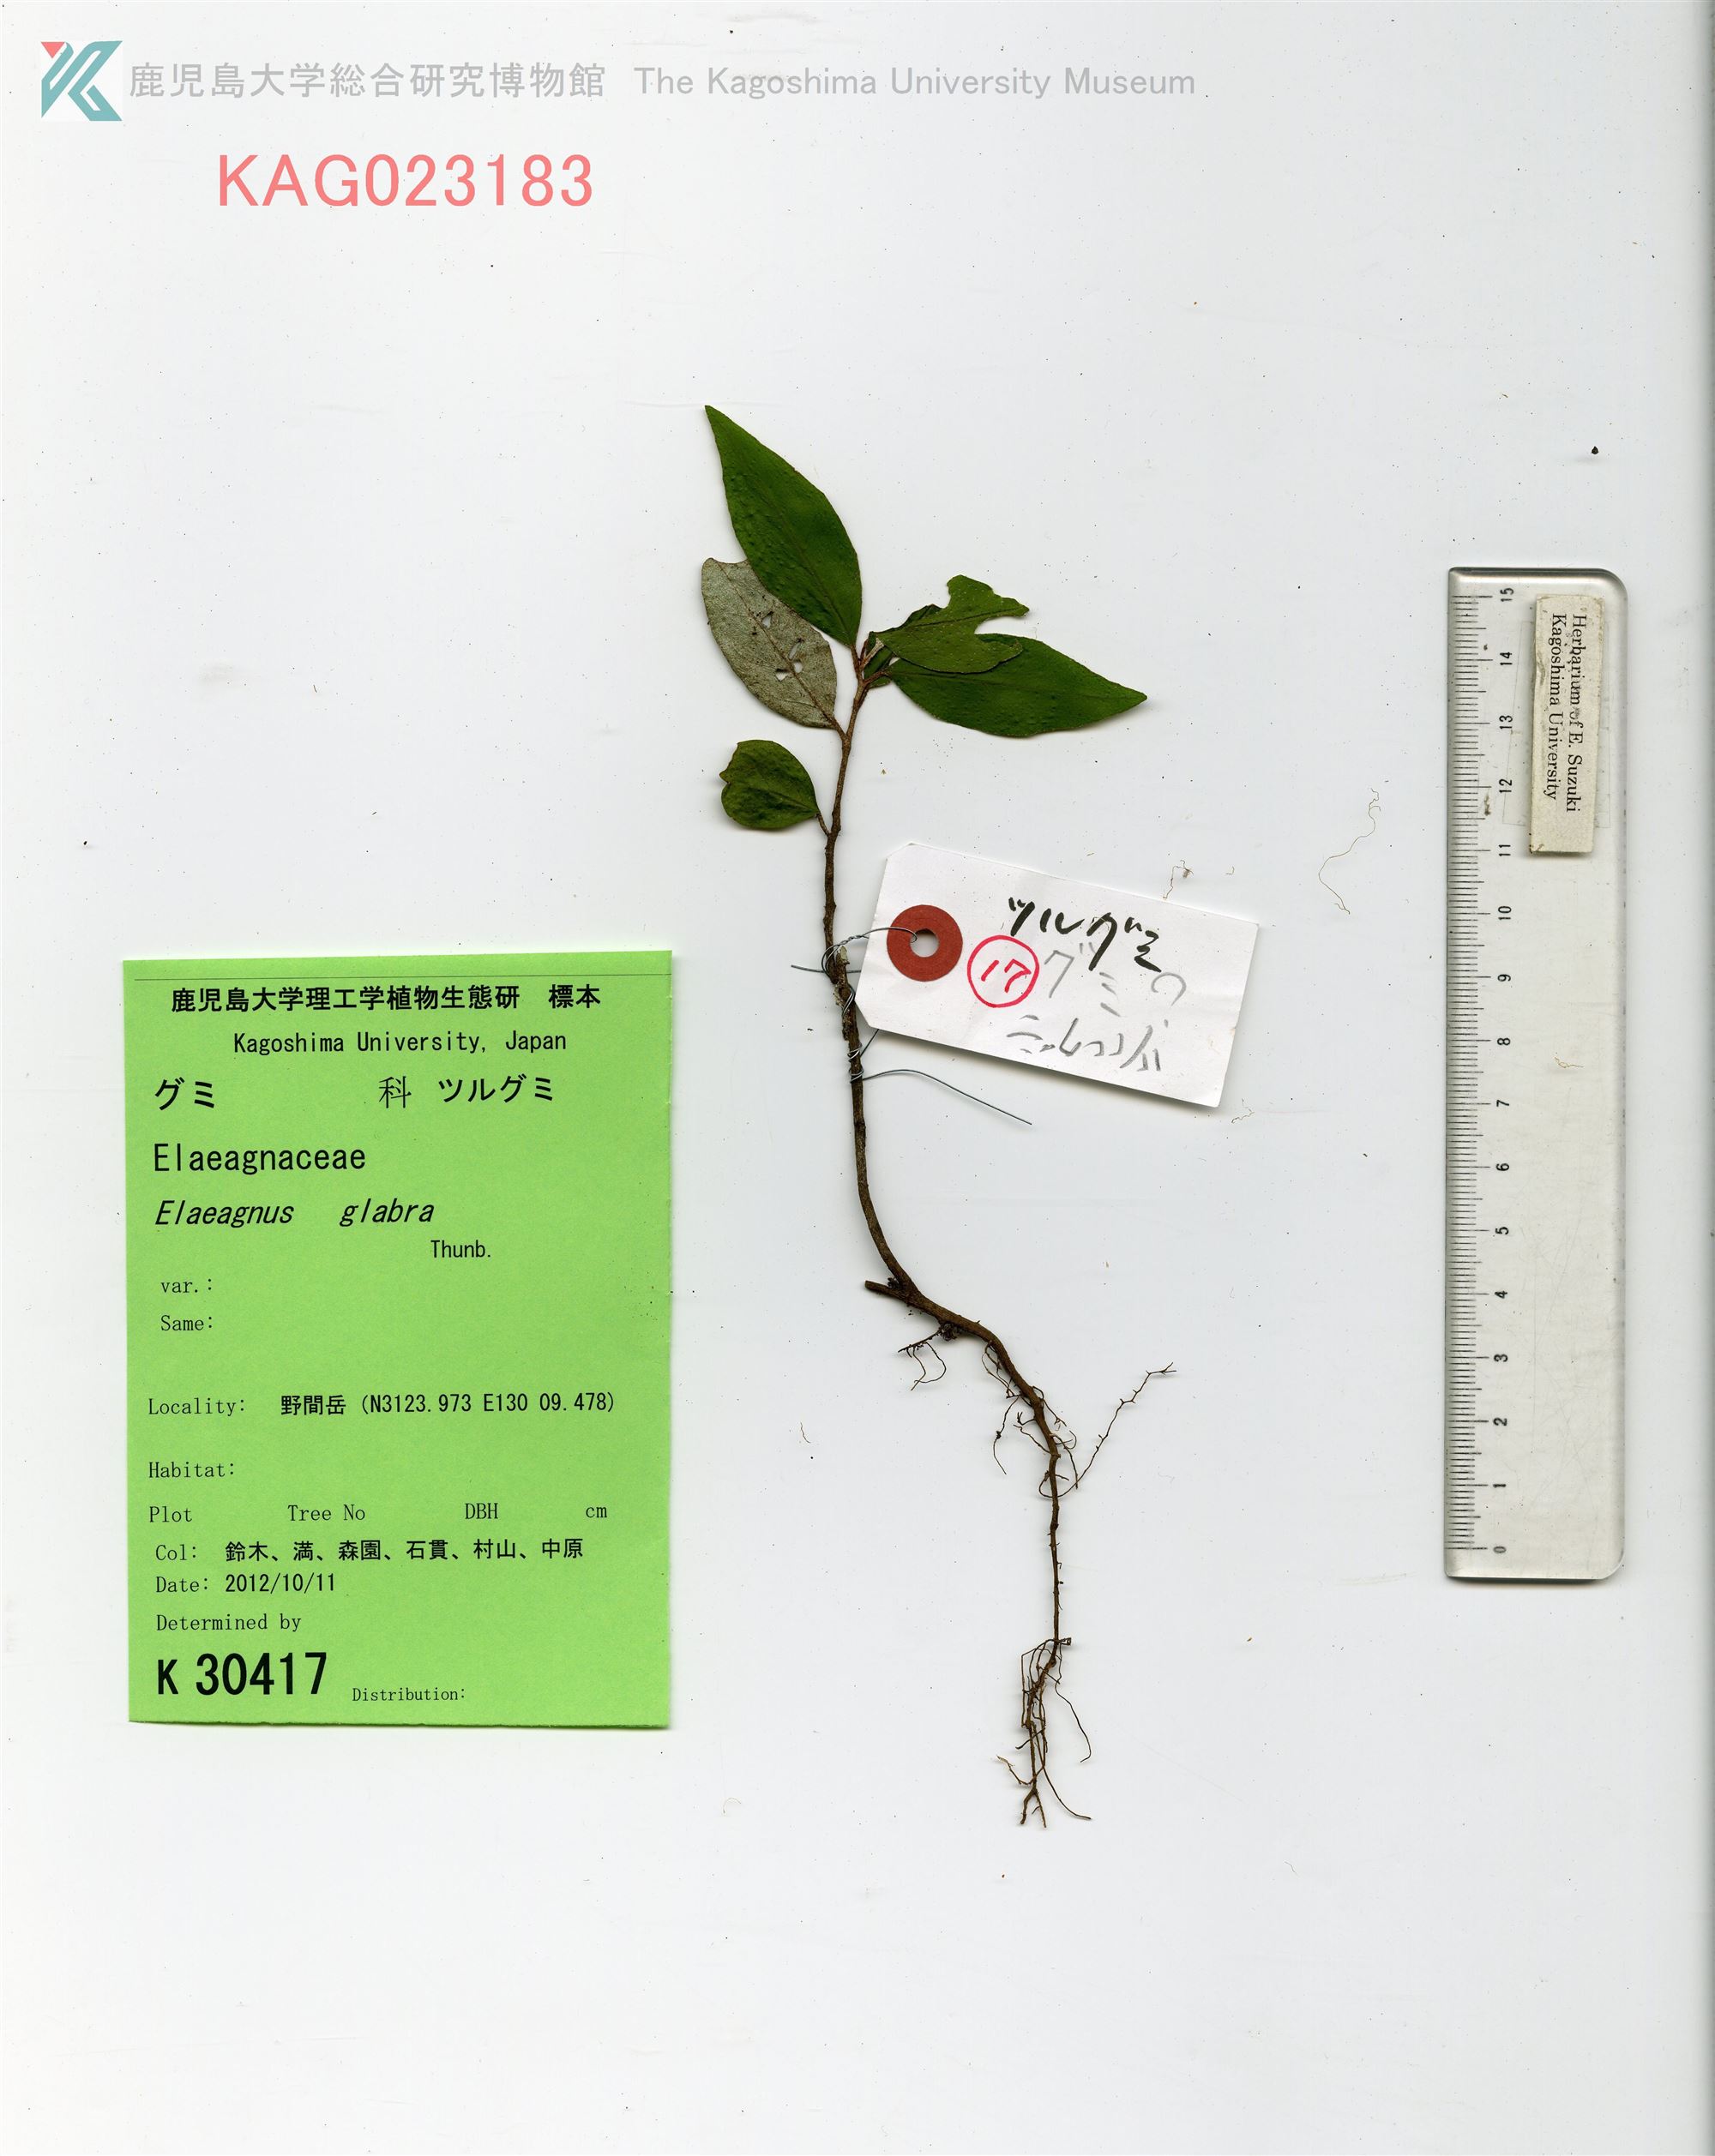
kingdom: Plantae
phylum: Tracheophyta
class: Magnoliopsida
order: Rosales
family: Elaeagnaceae
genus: Elaeagnus
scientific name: Elaeagnus glabra
